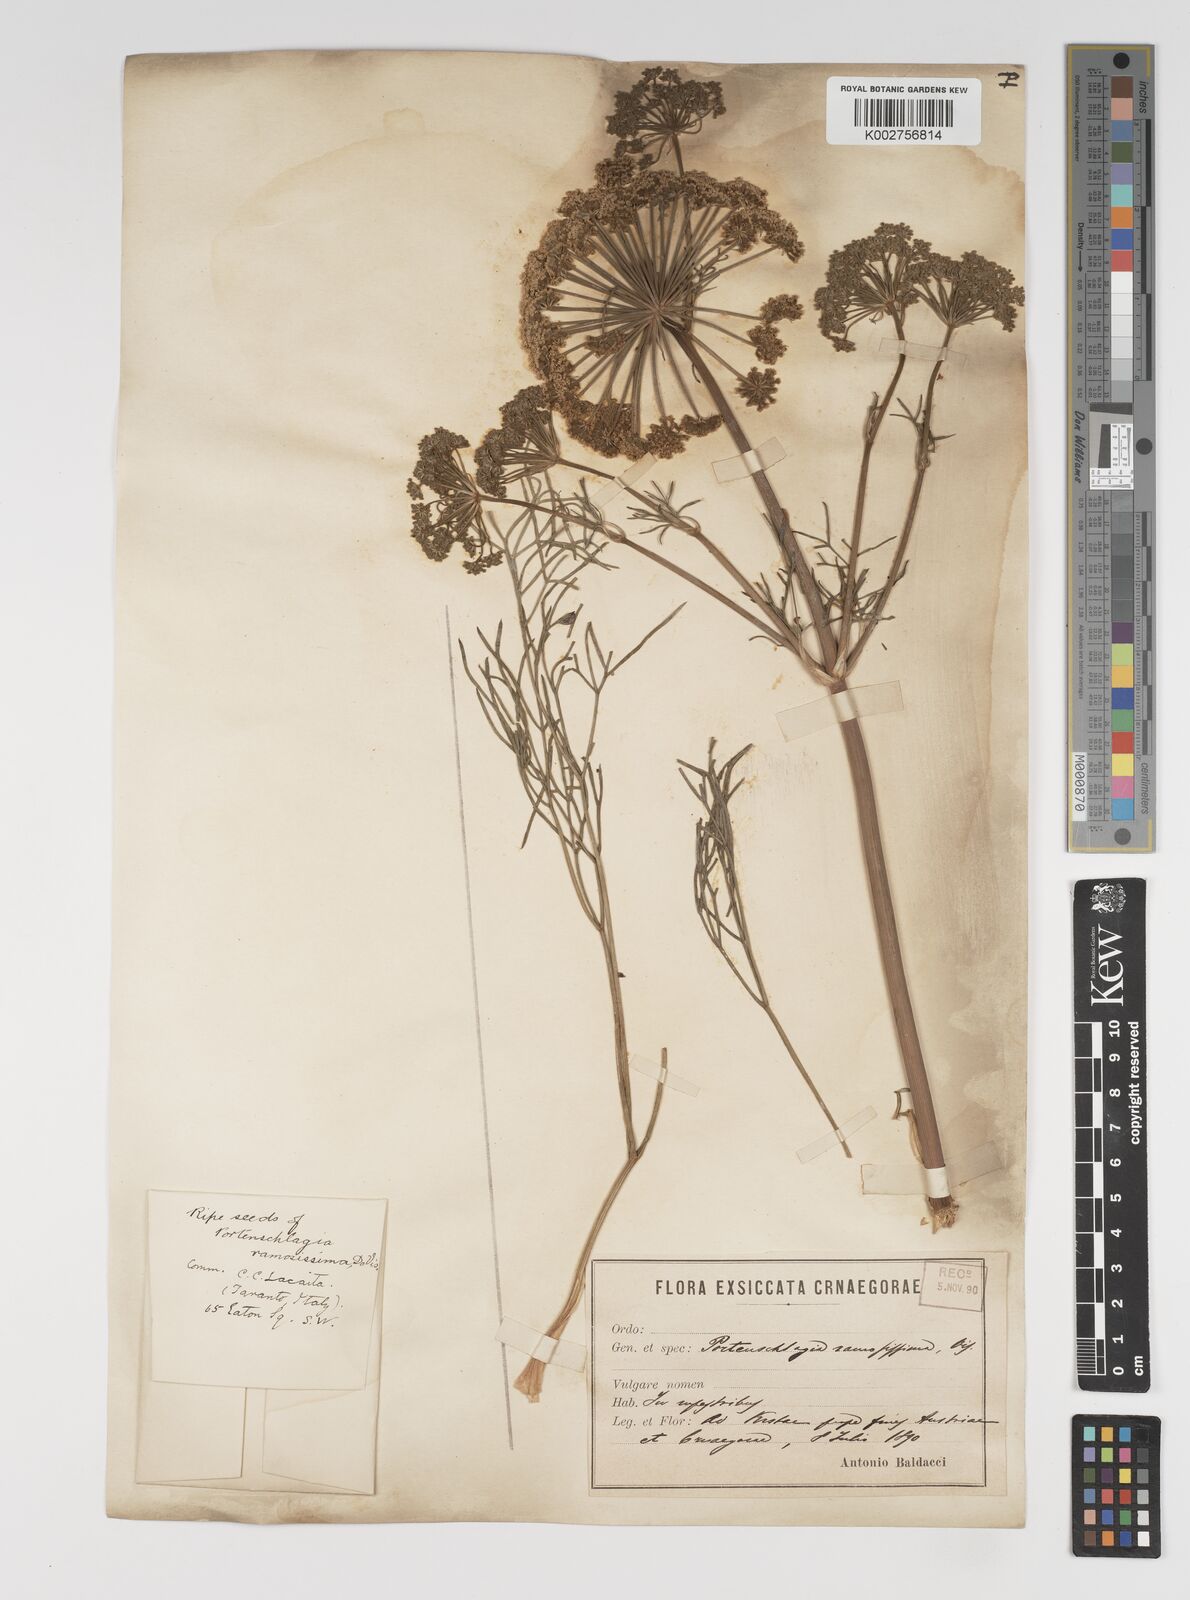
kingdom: Plantae
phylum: Tracheophyta
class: Magnoliopsida
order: Apiales
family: Apiaceae
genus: Athamanta
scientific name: Athamanta ramosissima
